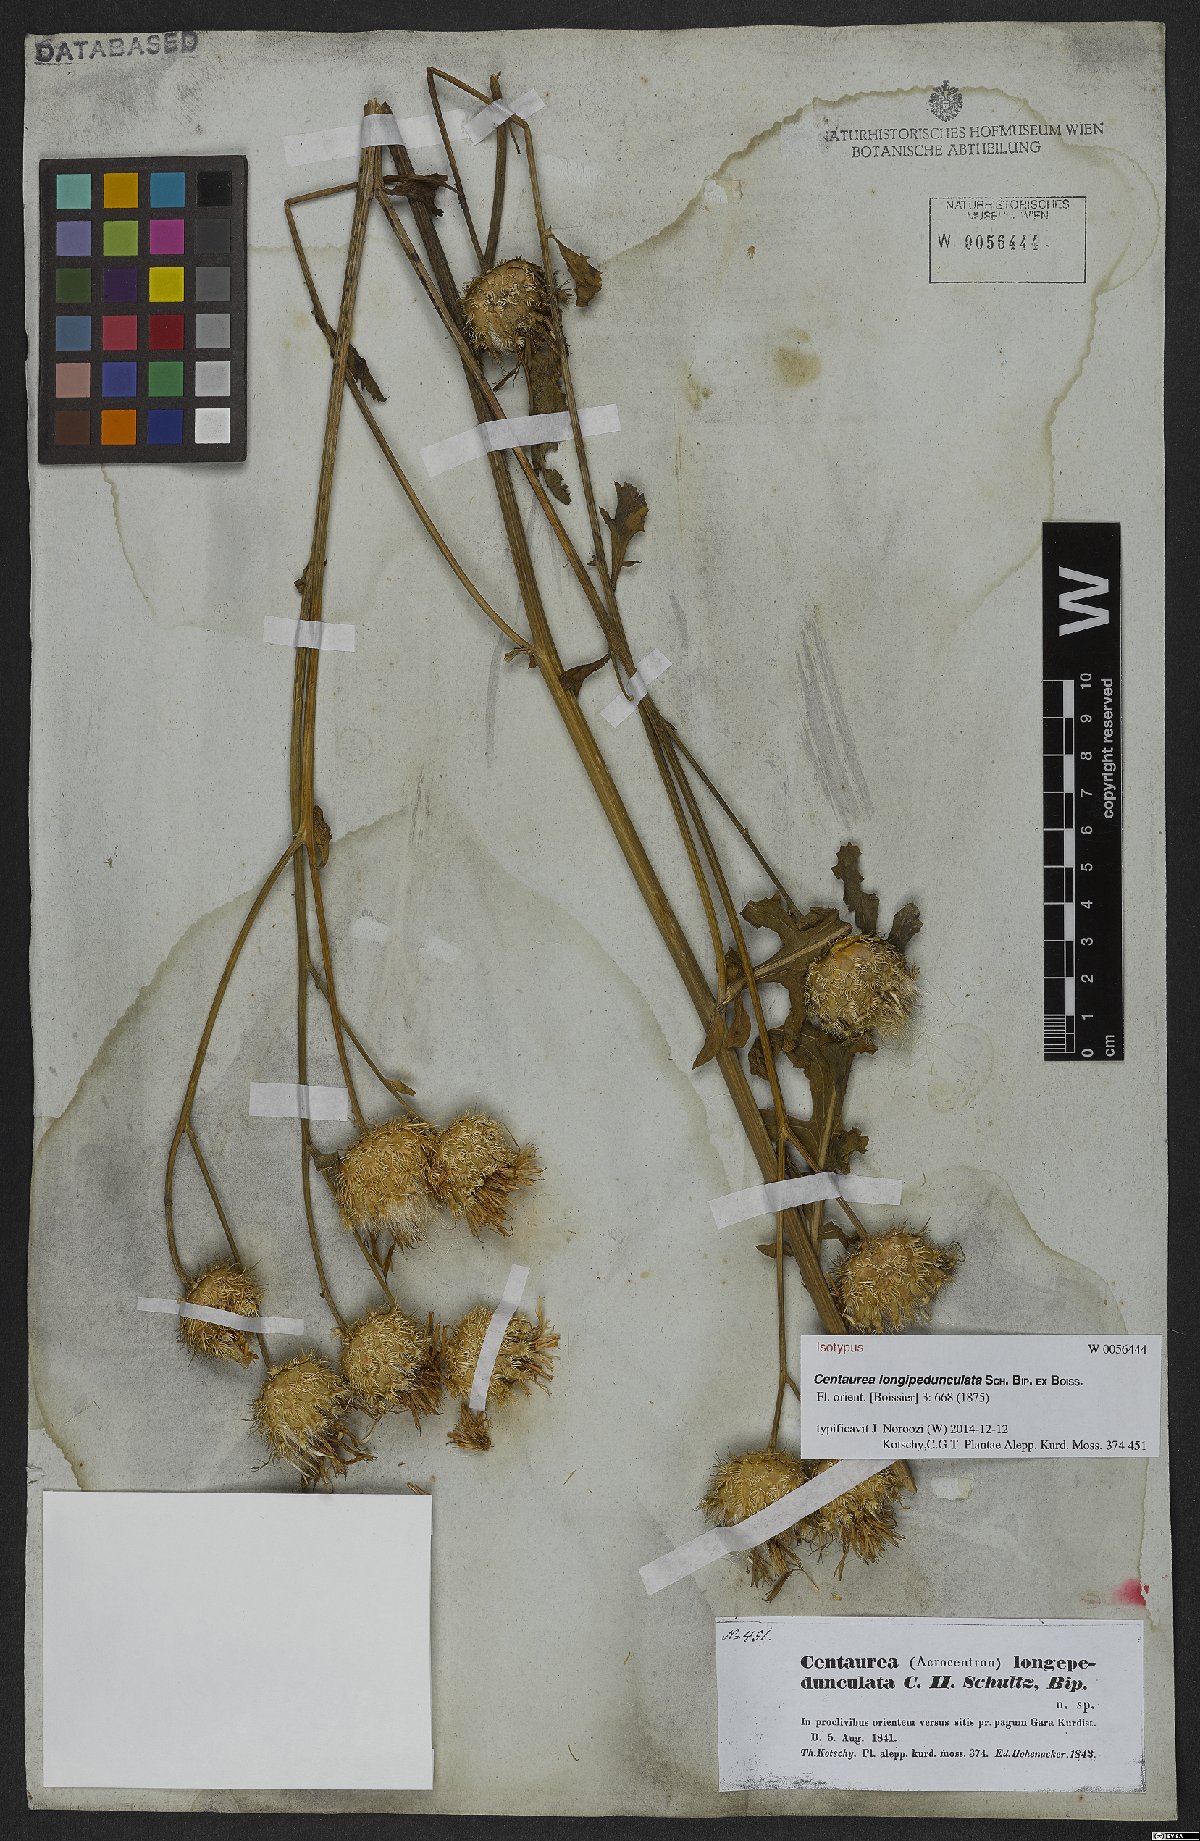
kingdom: Plantae
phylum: Tracheophyta
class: Magnoliopsida
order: Asterales
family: Asteraceae
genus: Centaurea
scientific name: Centaurea longepedunculata
